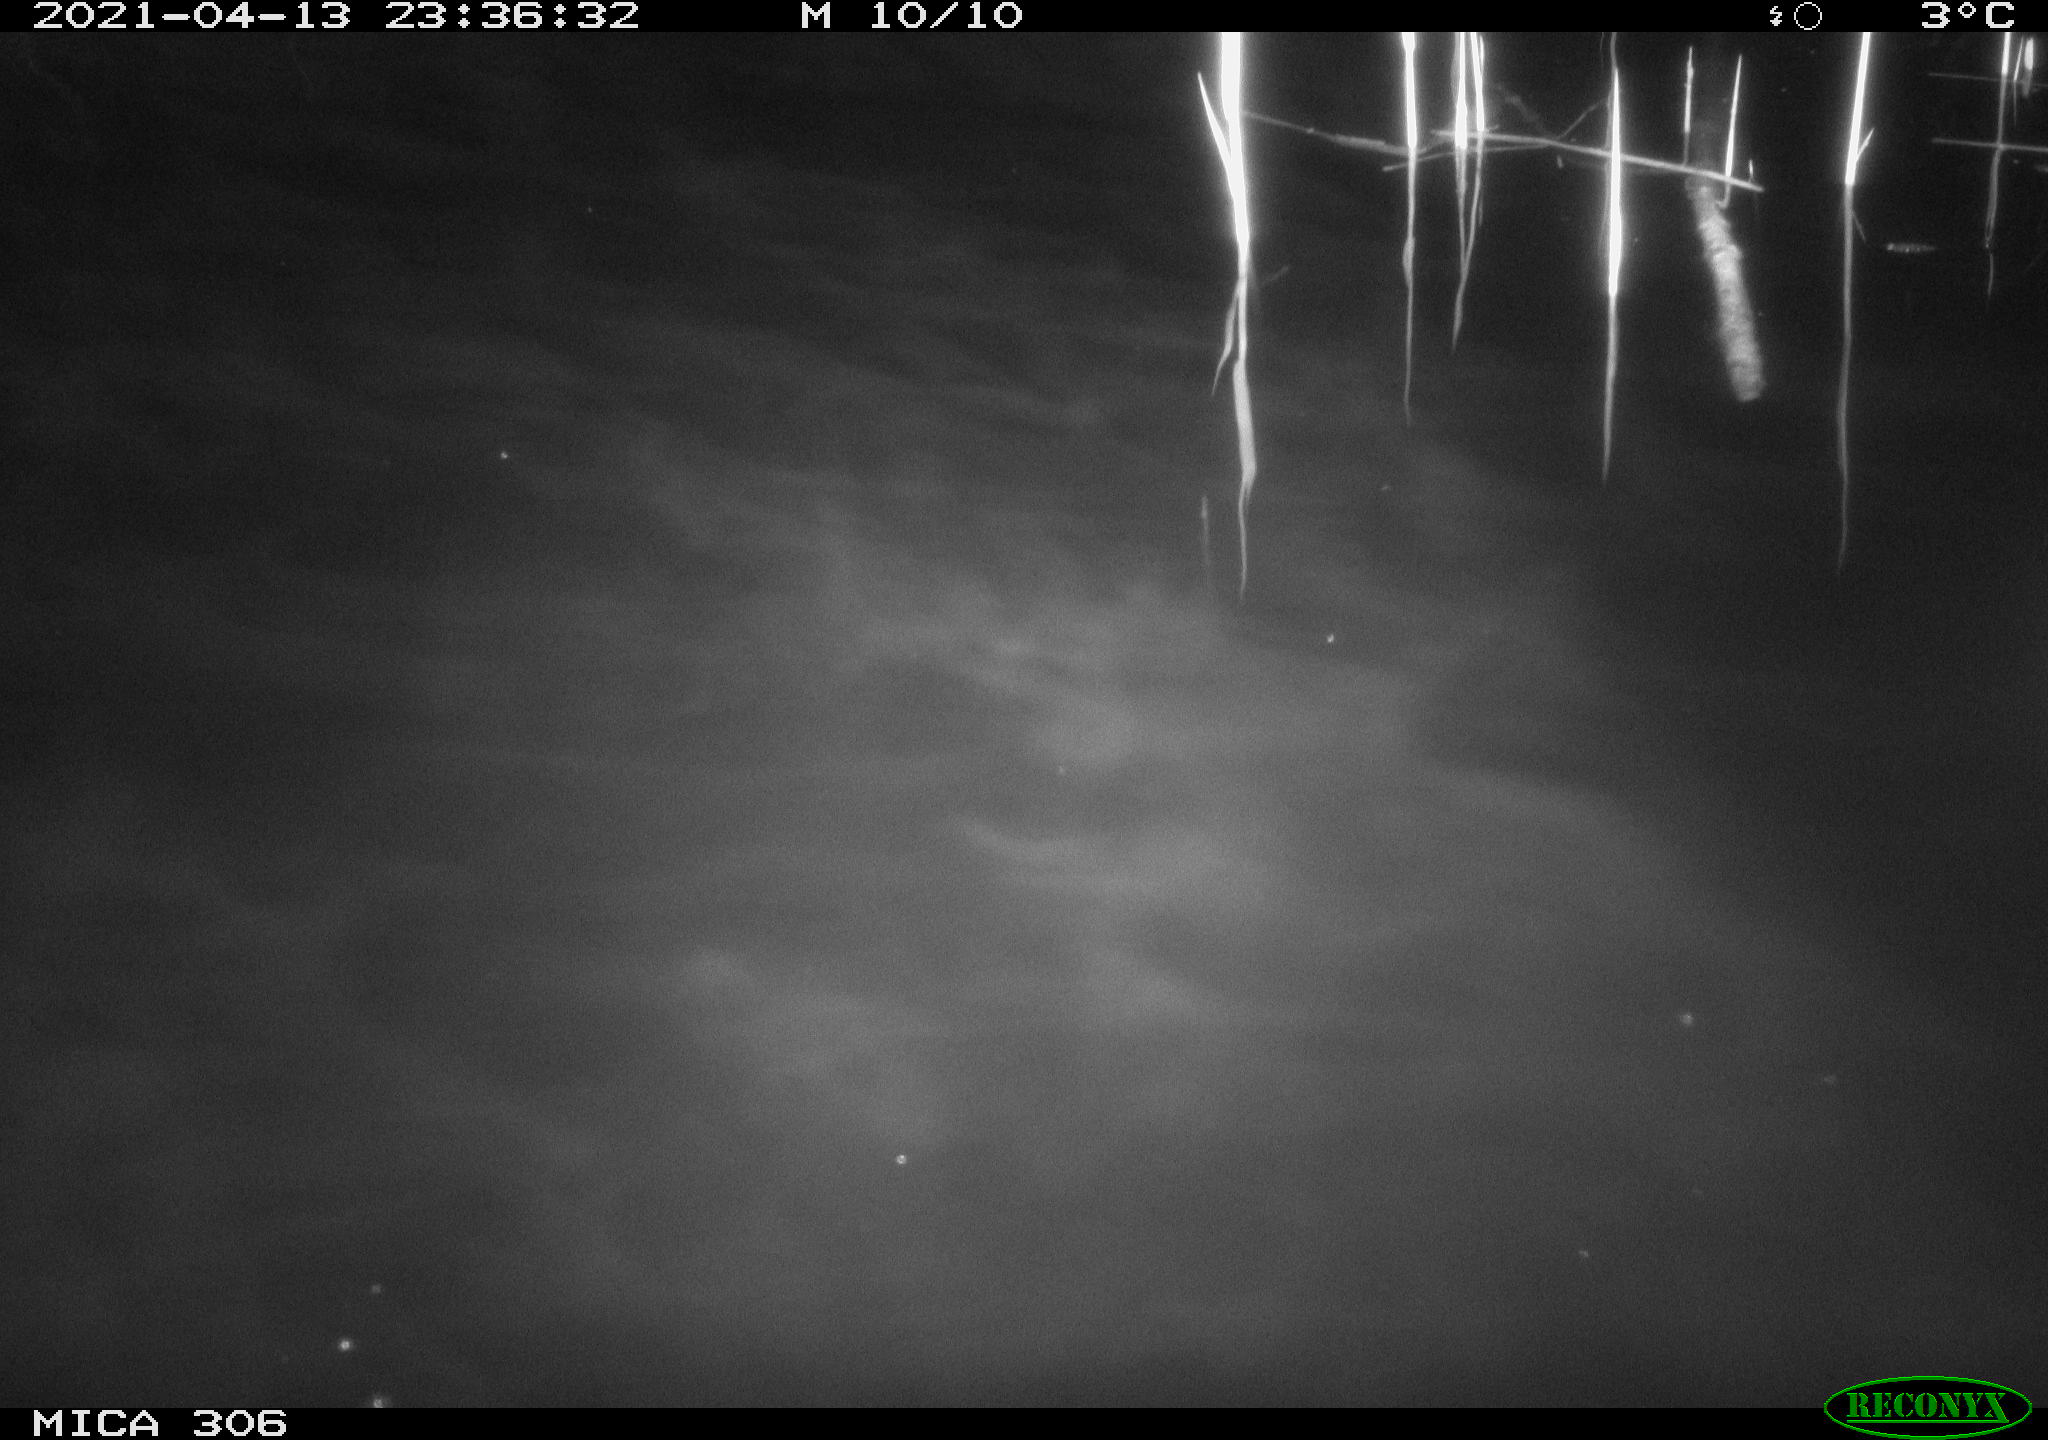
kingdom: Animalia
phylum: Chordata
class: Mammalia
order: Rodentia
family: Cricetidae
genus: Ondatra
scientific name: Ondatra zibethicus
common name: Muskrat
